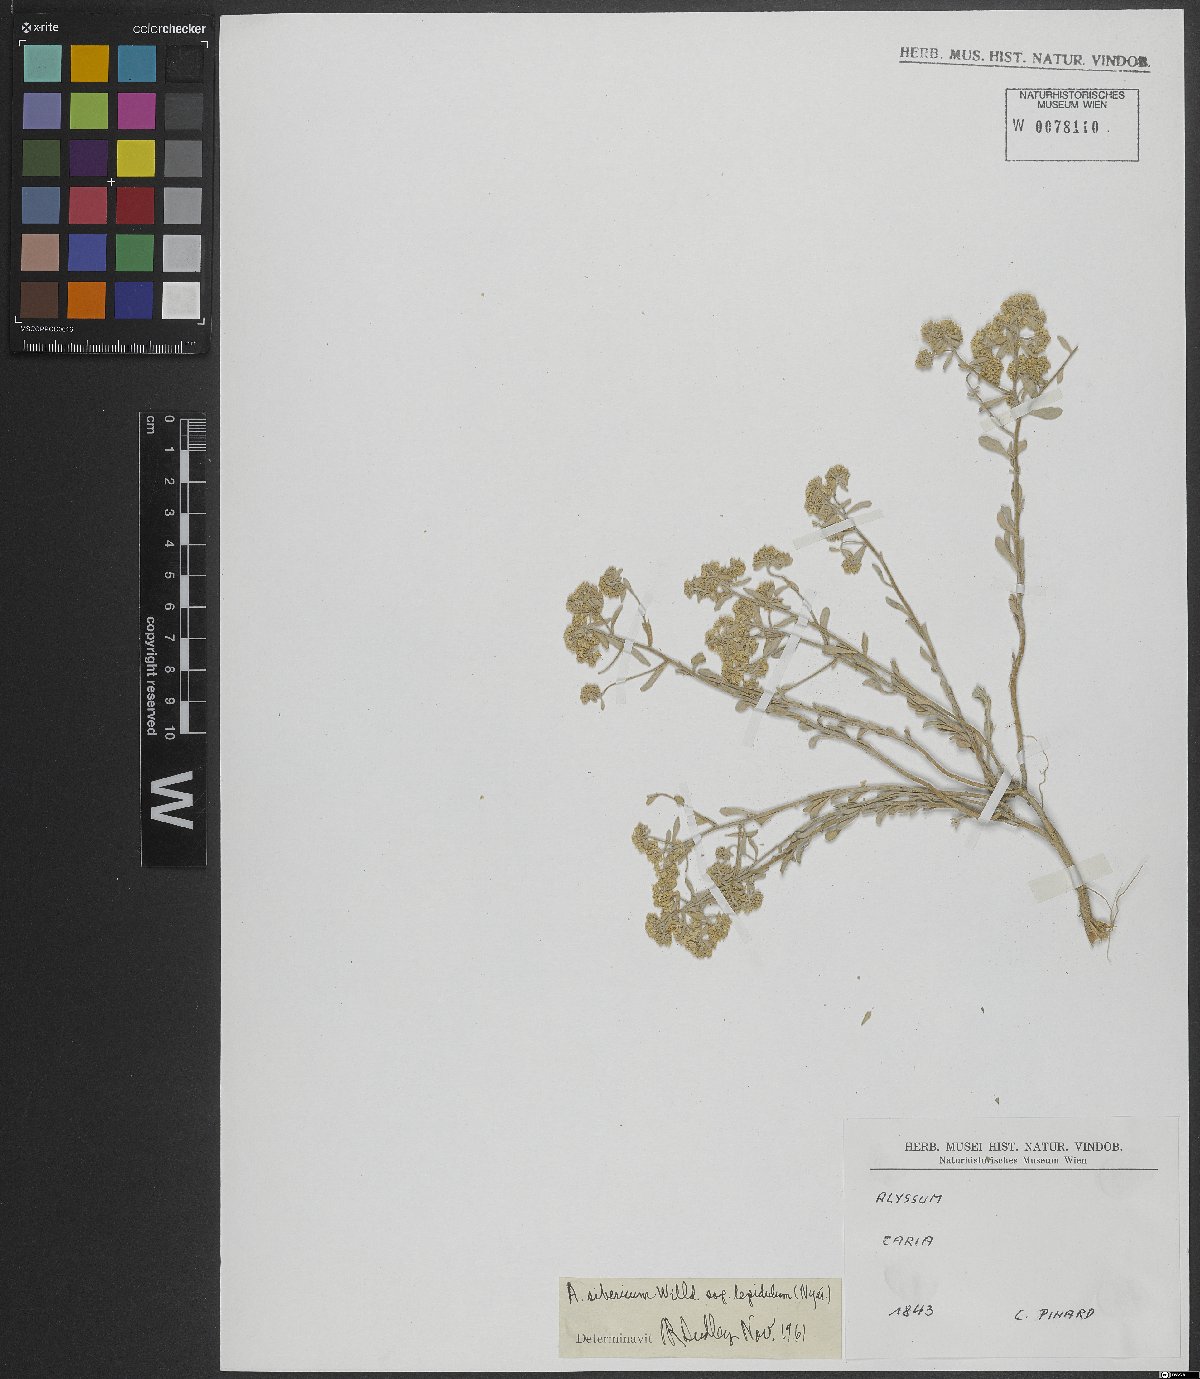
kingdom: Plantae
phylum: Tracheophyta
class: Magnoliopsida
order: Brassicales
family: Brassicaceae
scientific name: Brassicaceae
